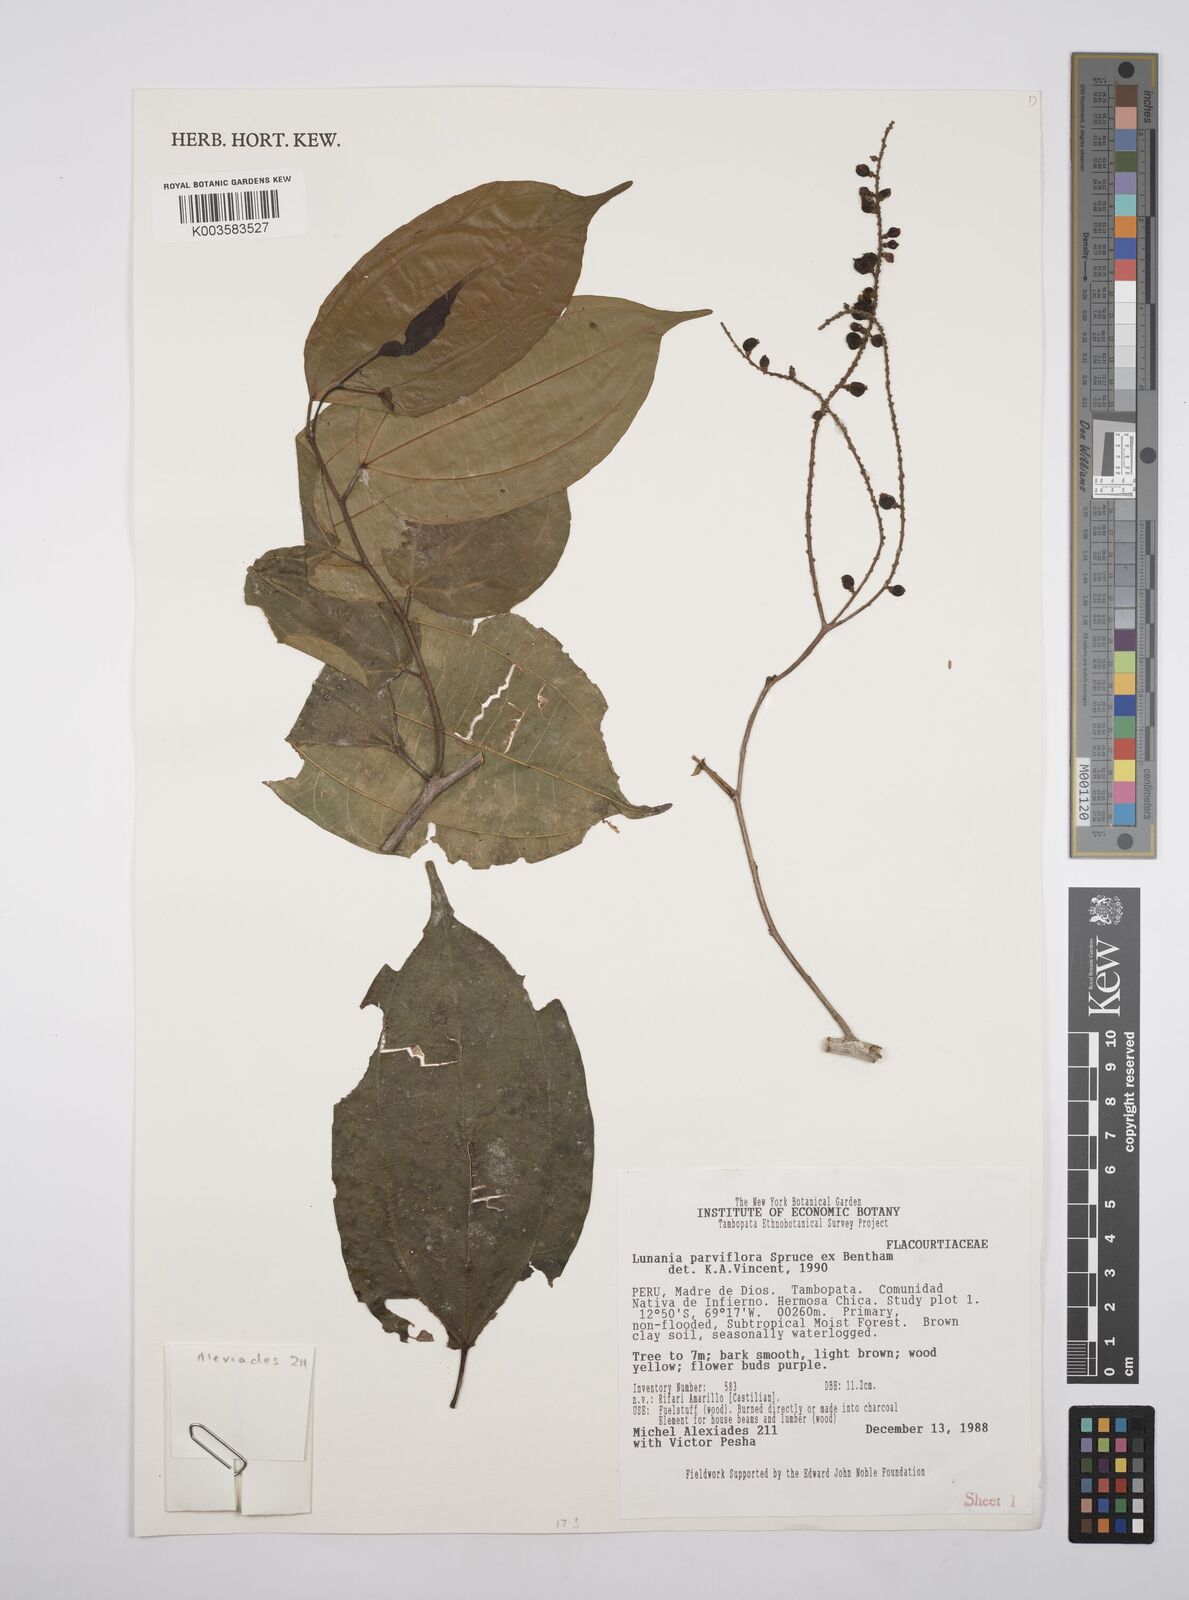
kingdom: Plantae
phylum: Tracheophyta
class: Magnoliopsida
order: Malpighiales
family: Salicaceae
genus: Lunania
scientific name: Lunania parviflora
